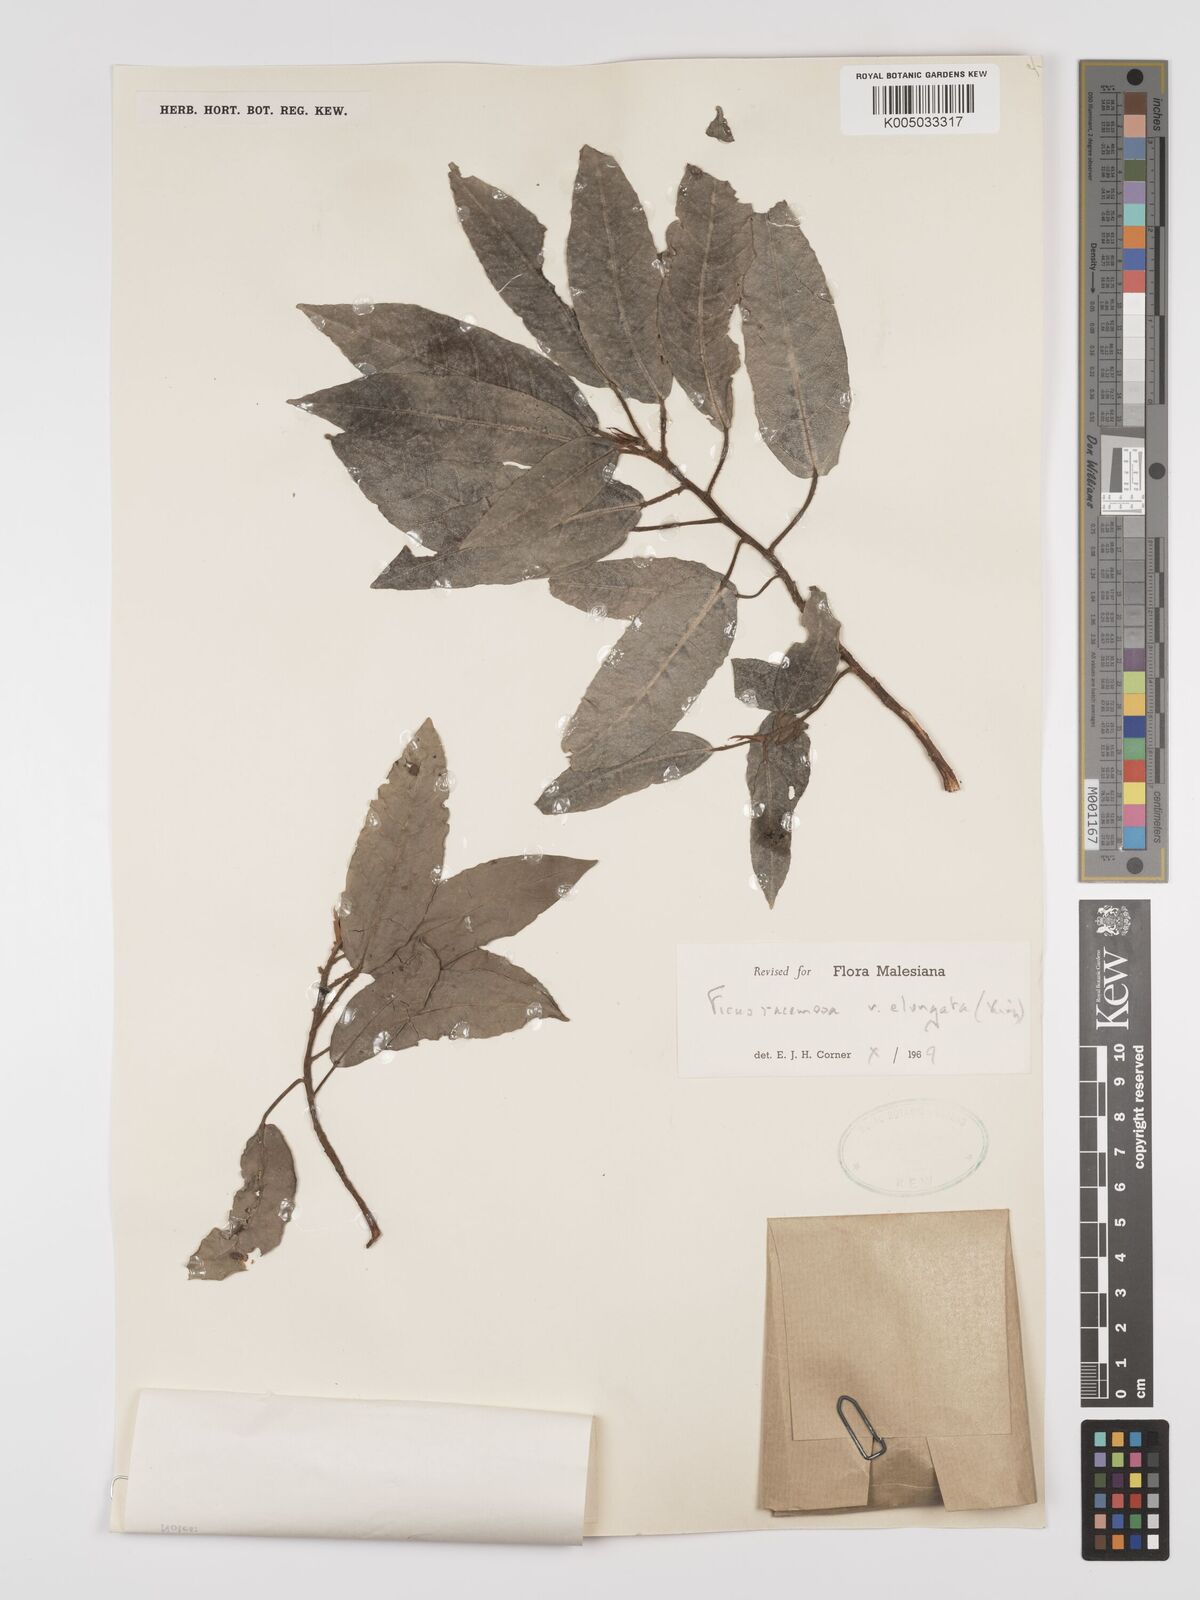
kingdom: Plantae
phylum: Tracheophyta
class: Magnoliopsida
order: Rosales
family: Moraceae
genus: Ficus
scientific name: Ficus
